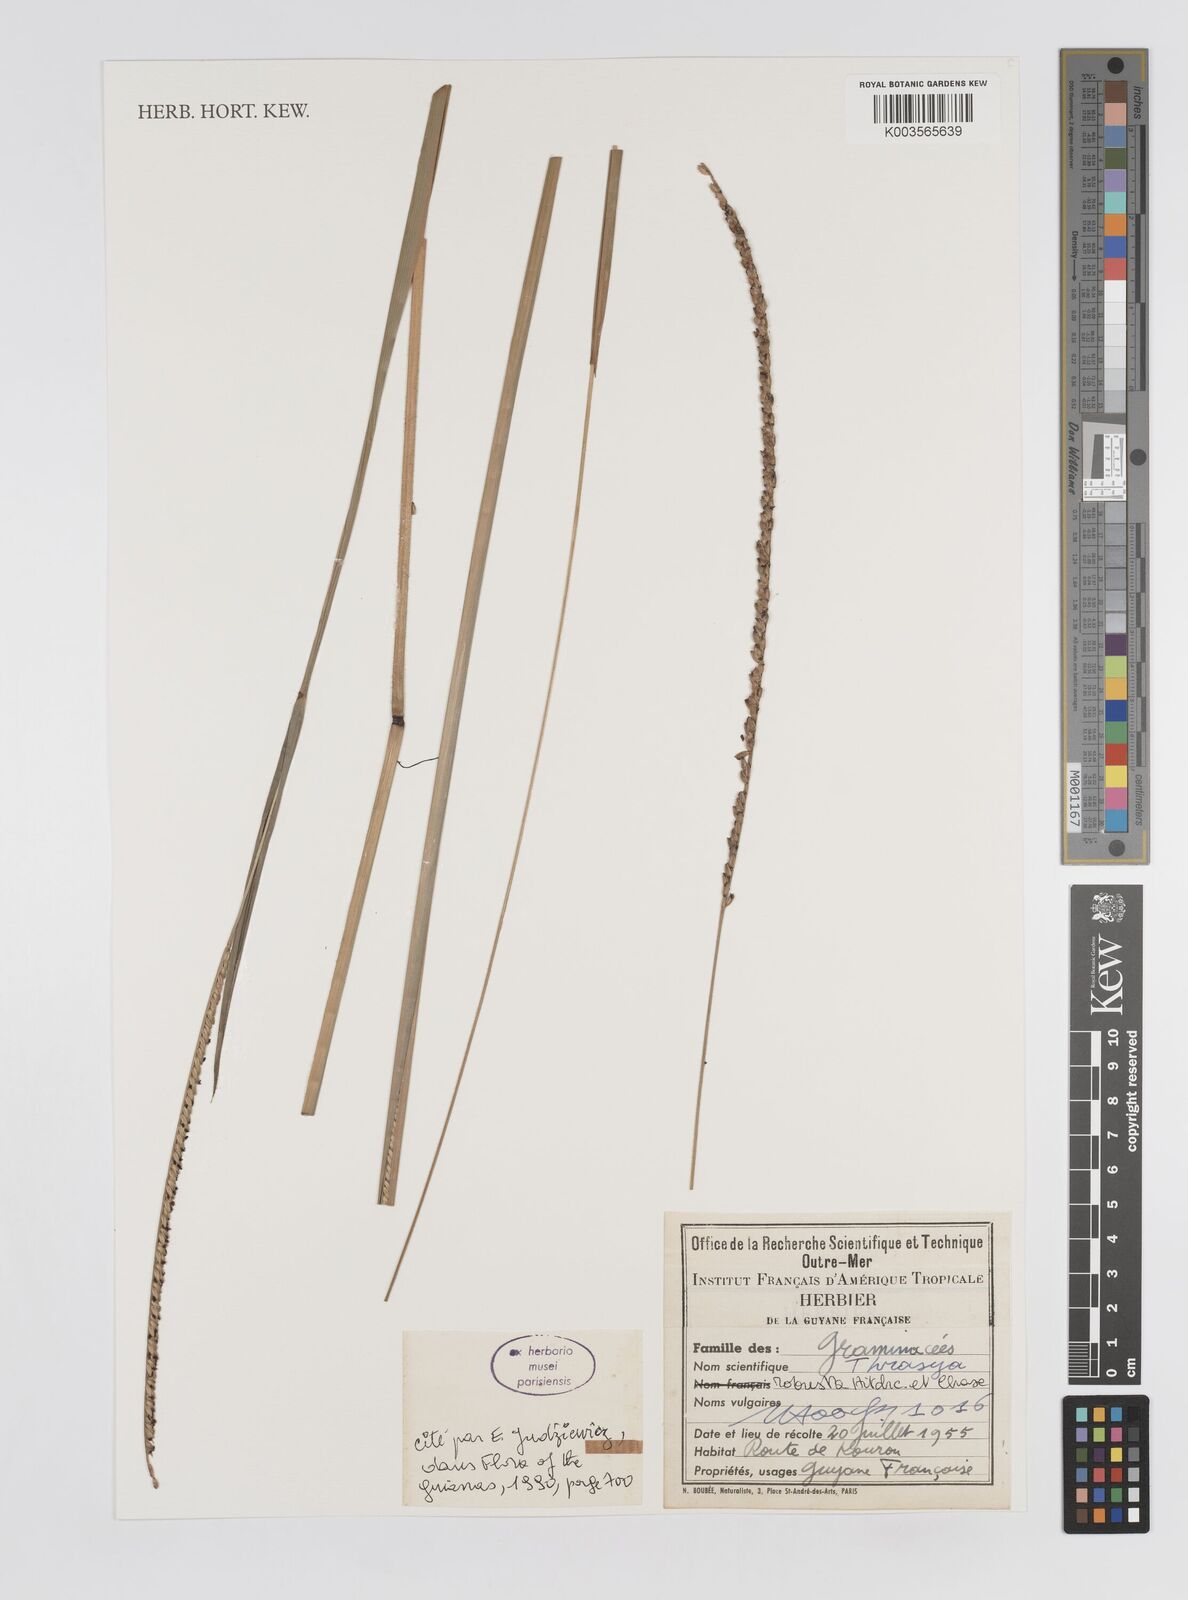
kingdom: Plantae
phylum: Tracheophyta
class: Liliopsida
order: Poales
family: Poaceae
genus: Paspalum
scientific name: Paspalum robustum
